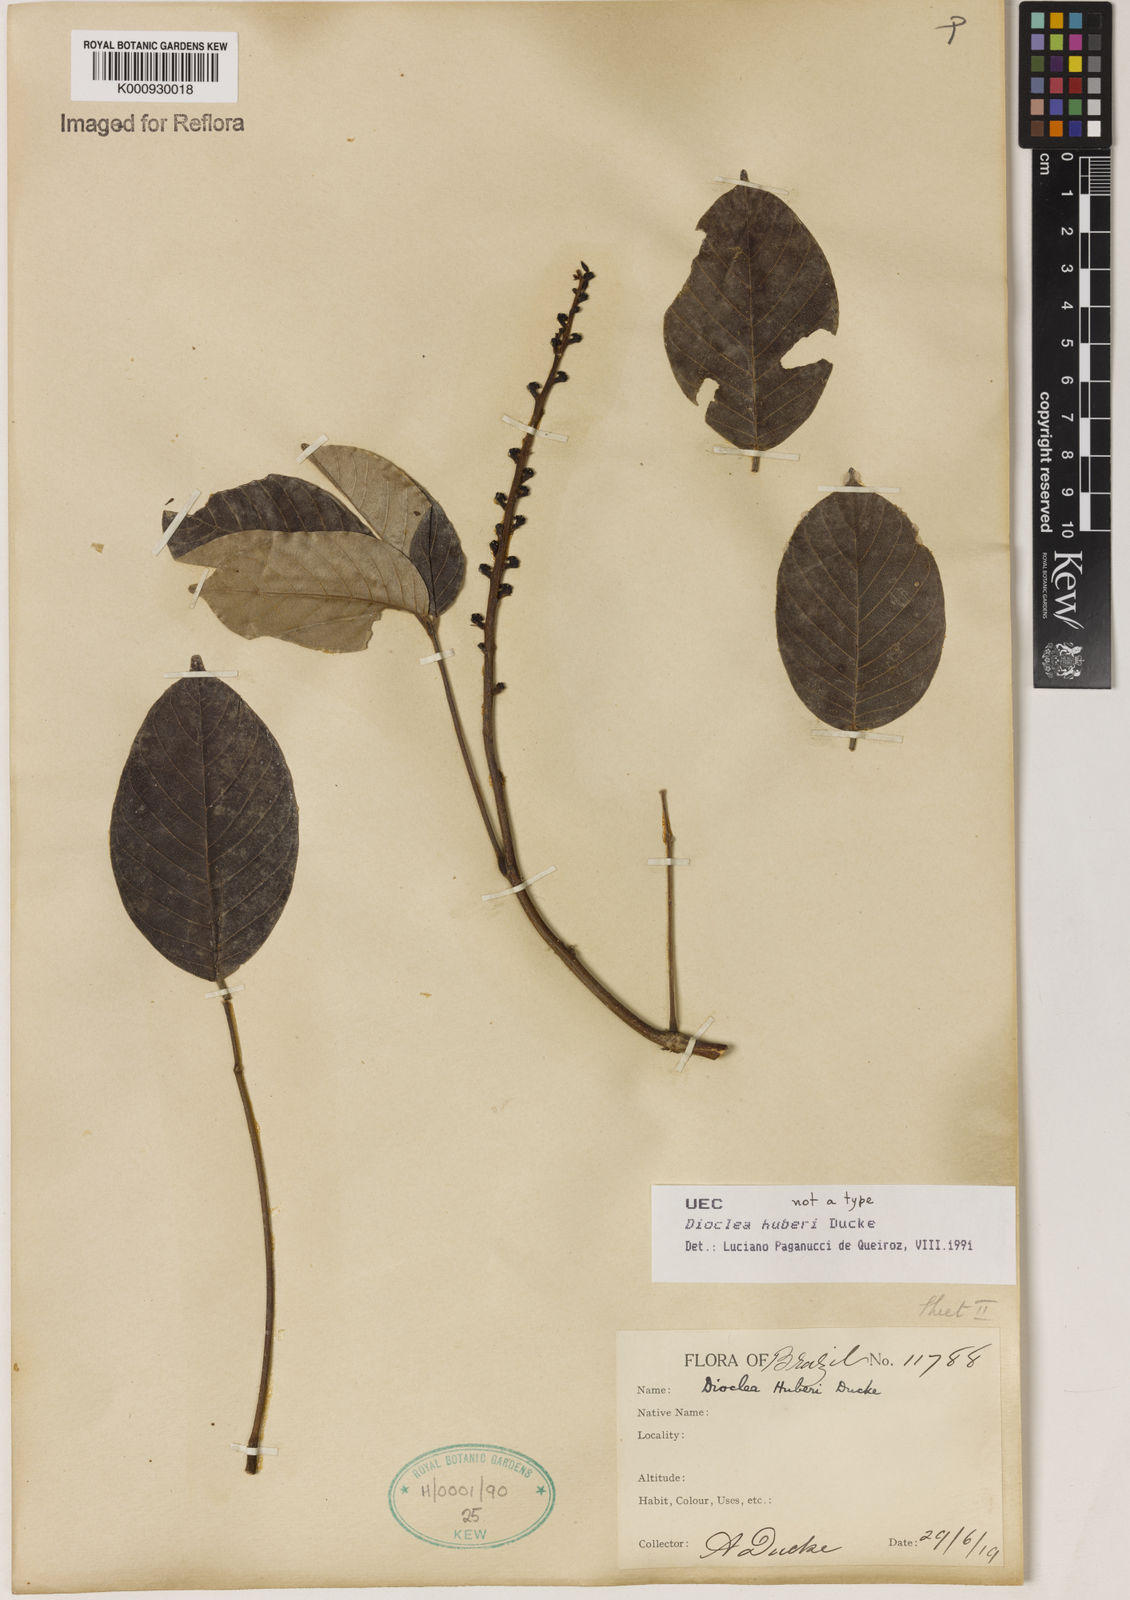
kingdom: Plantae
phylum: Tracheophyta
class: Magnoliopsida
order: Fabales
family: Fabaceae
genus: Macropsychanthus
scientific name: Macropsychanthus huberi
